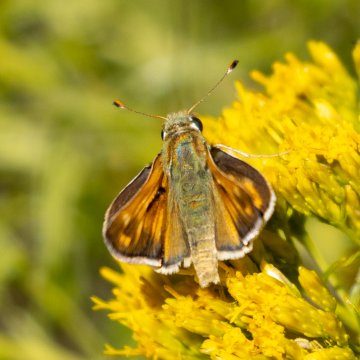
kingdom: Animalia
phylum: Arthropoda
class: Insecta
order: Lepidoptera
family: Hesperiidae
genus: Hesperia
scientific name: Hesperia comma
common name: Western Branded Skipper
